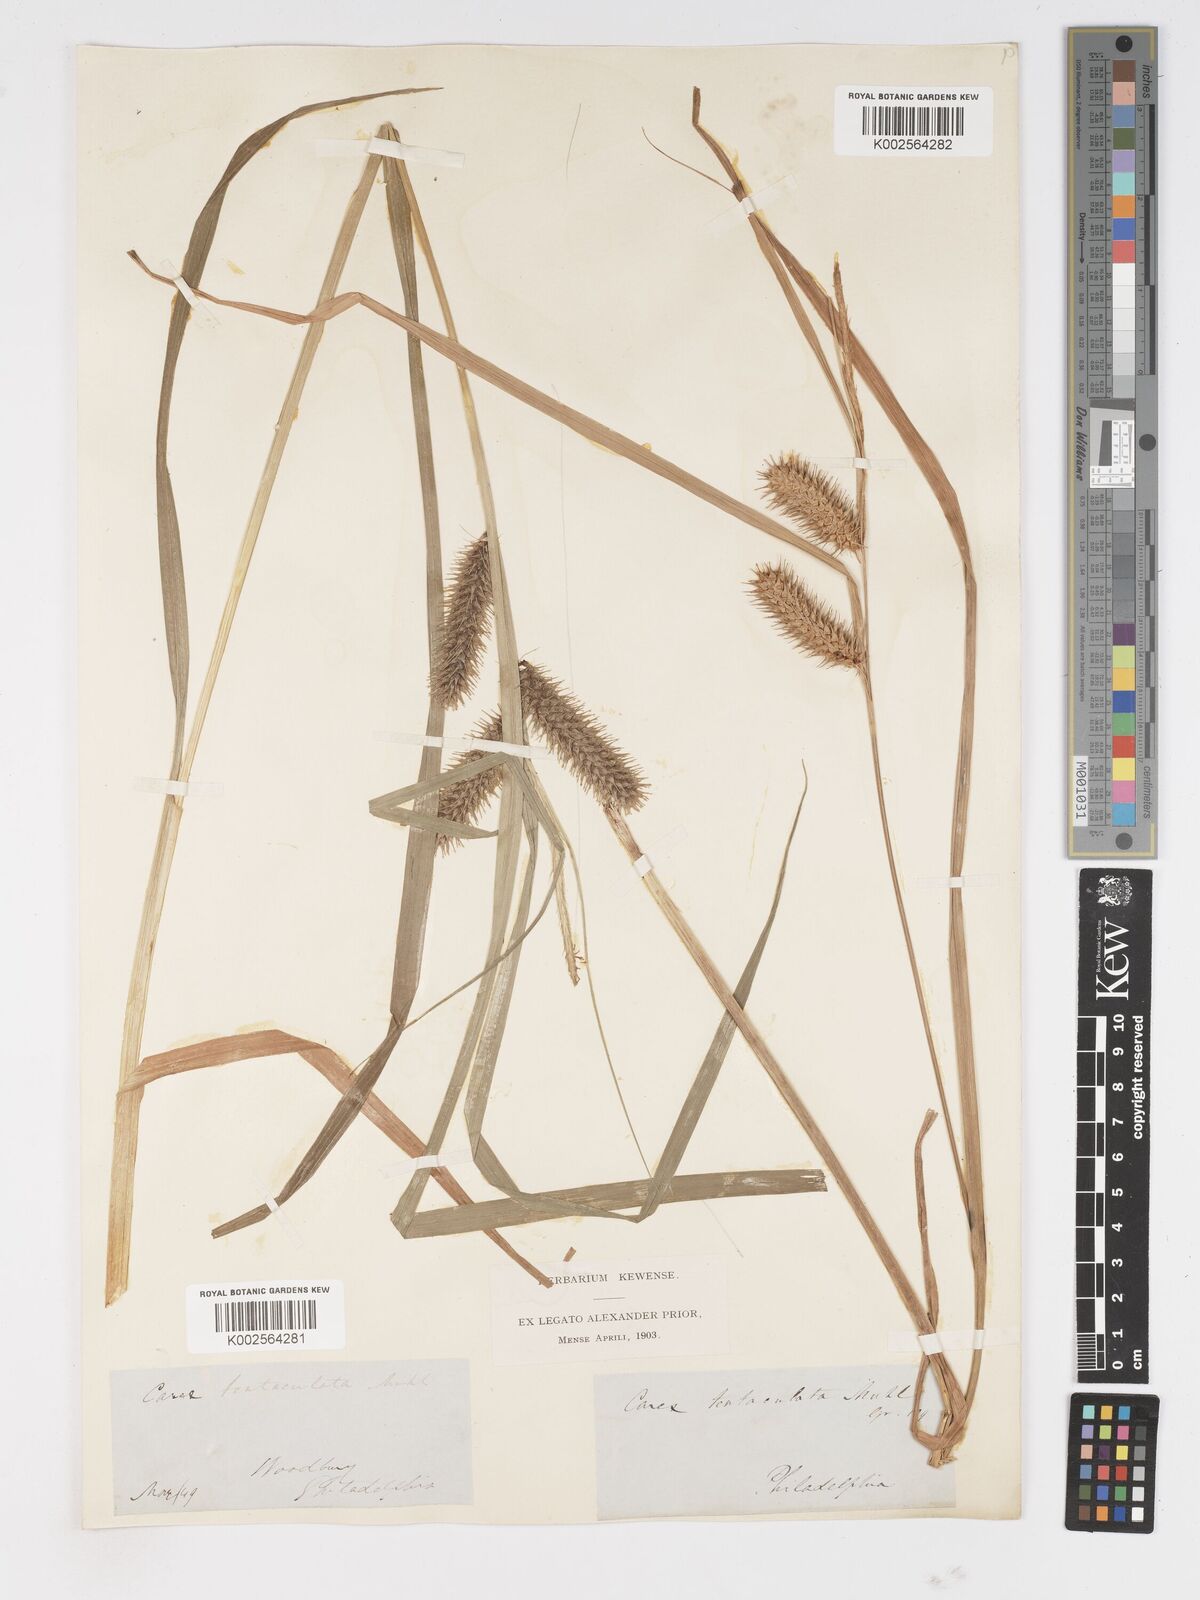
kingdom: Plantae
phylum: Tracheophyta
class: Liliopsida
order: Poales
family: Cyperaceae
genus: Carex
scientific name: Carex lurida
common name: Sallow sedge
